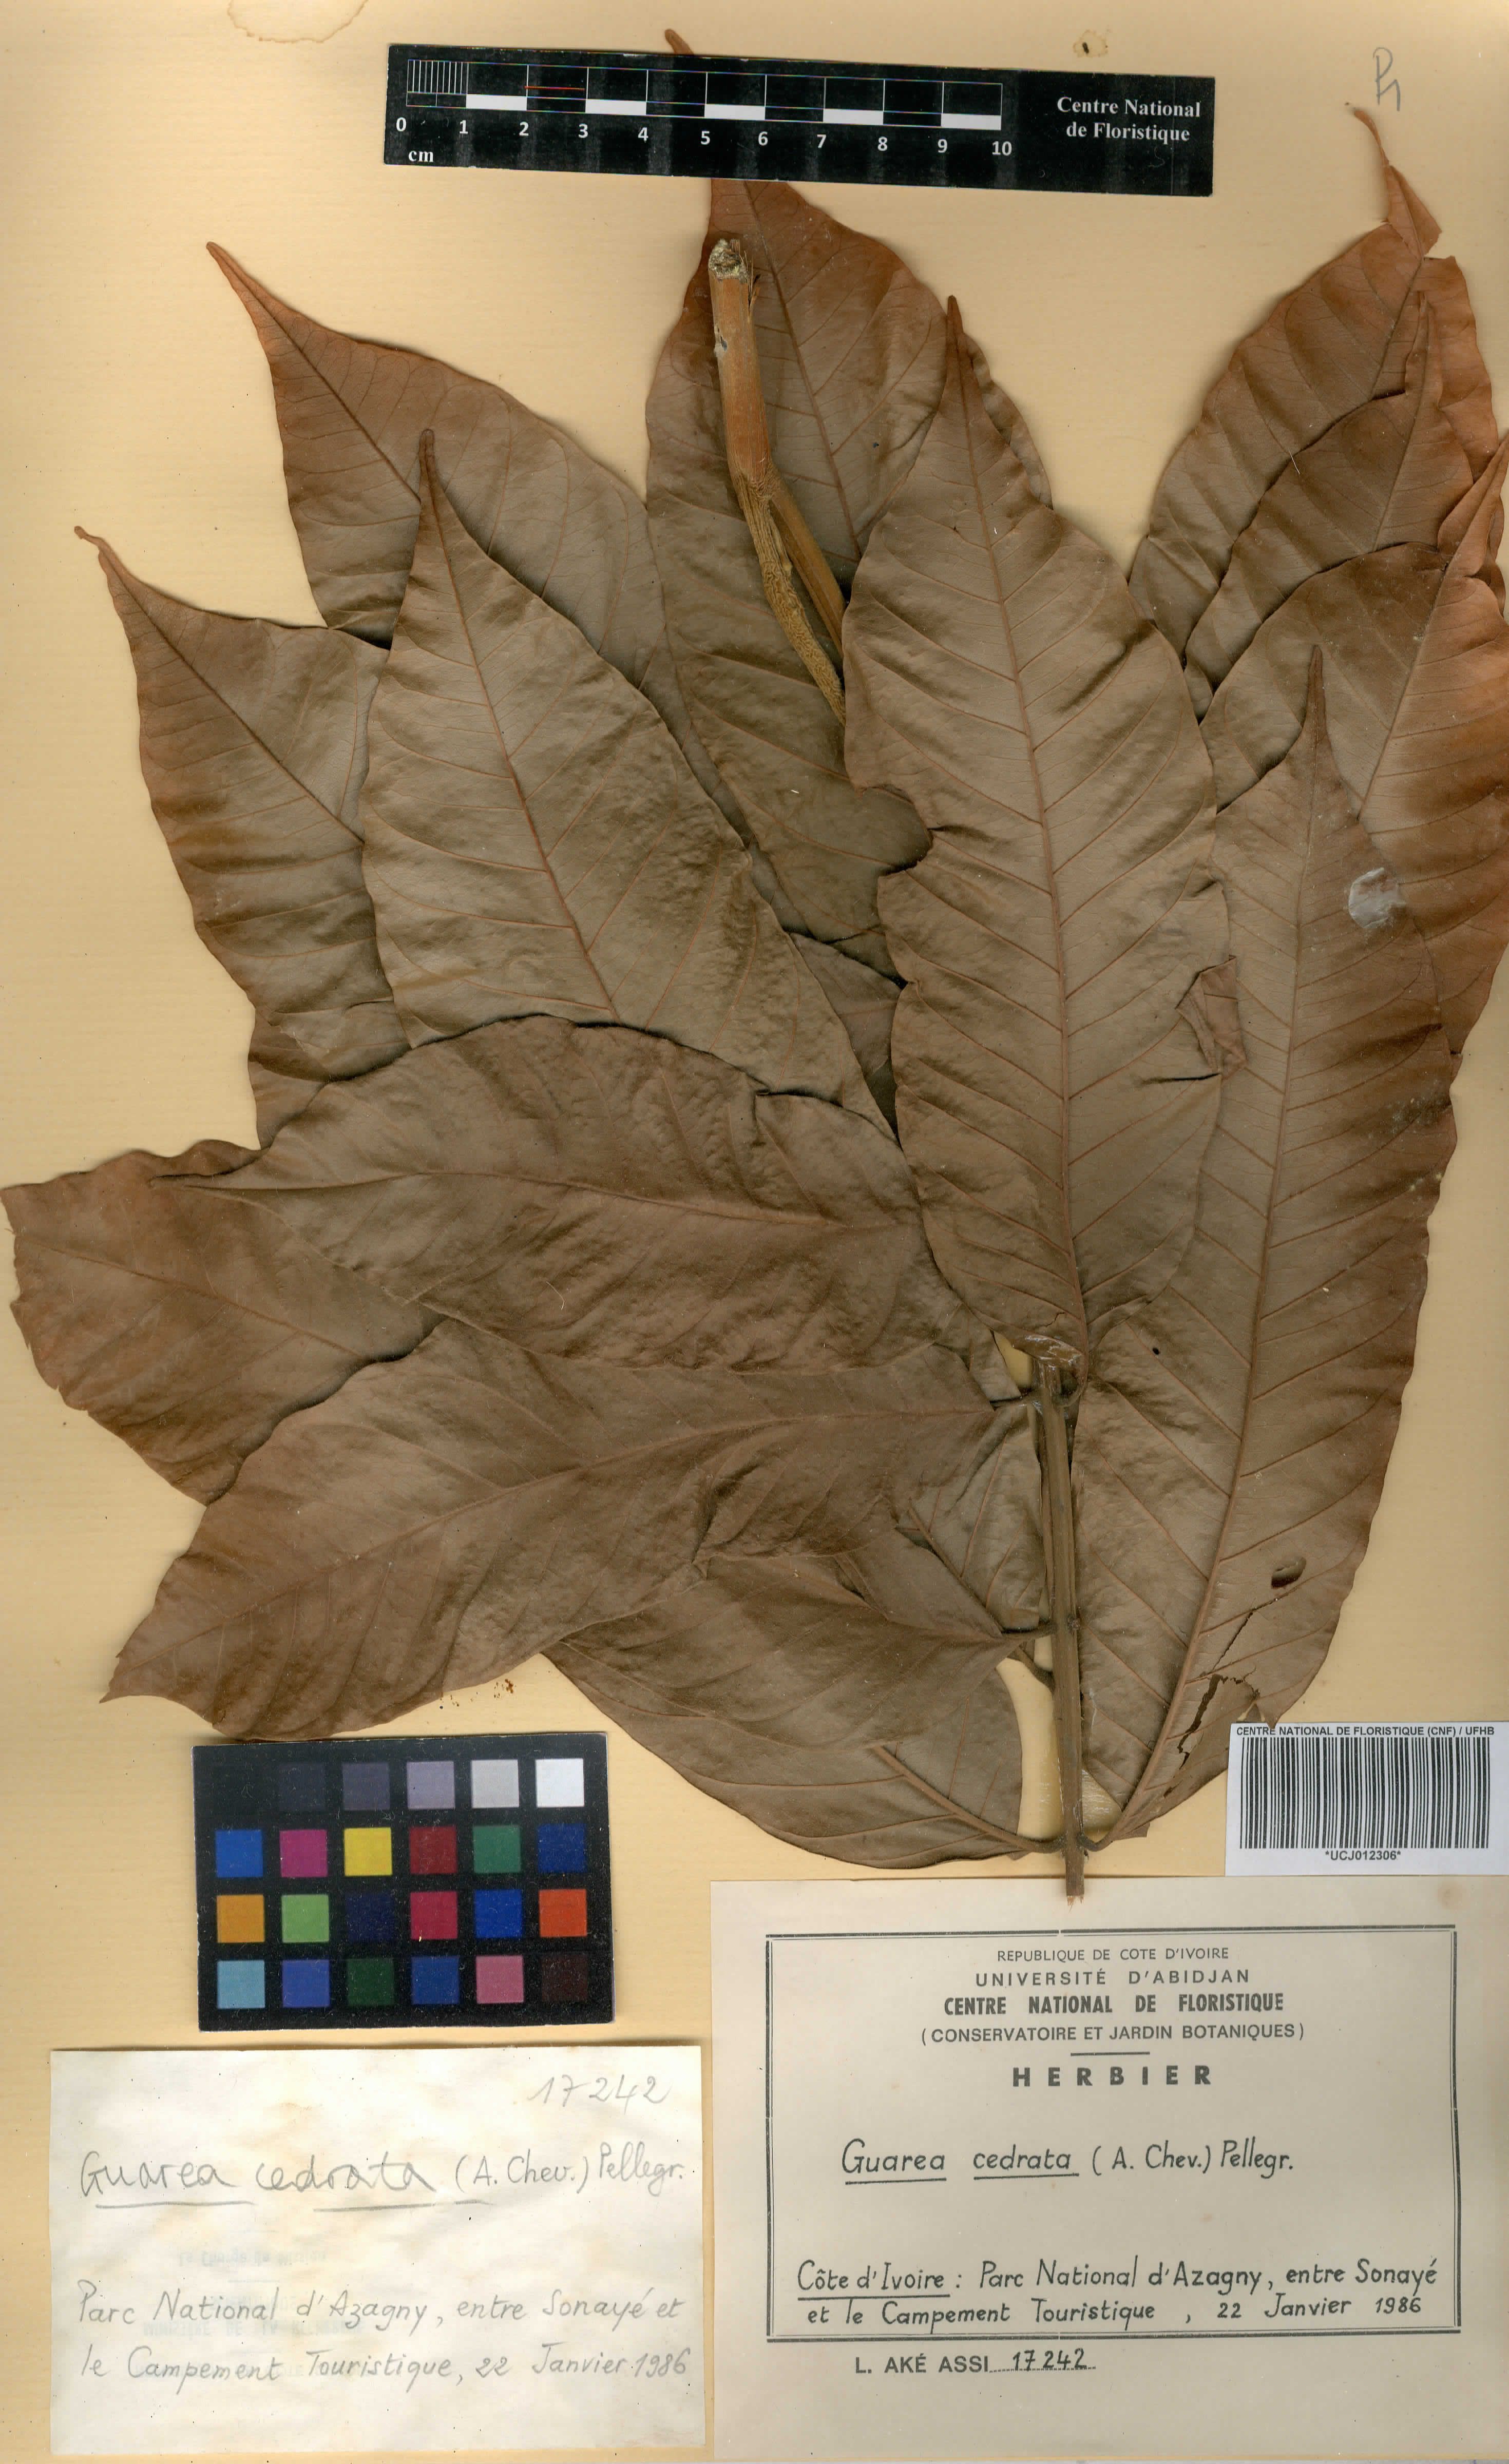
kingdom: Plantae
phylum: Tracheophyta
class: Magnoliopsida
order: Sapindales
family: Meliaceae
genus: Leplaea
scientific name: Leplaea cedrata
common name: Light bossé
